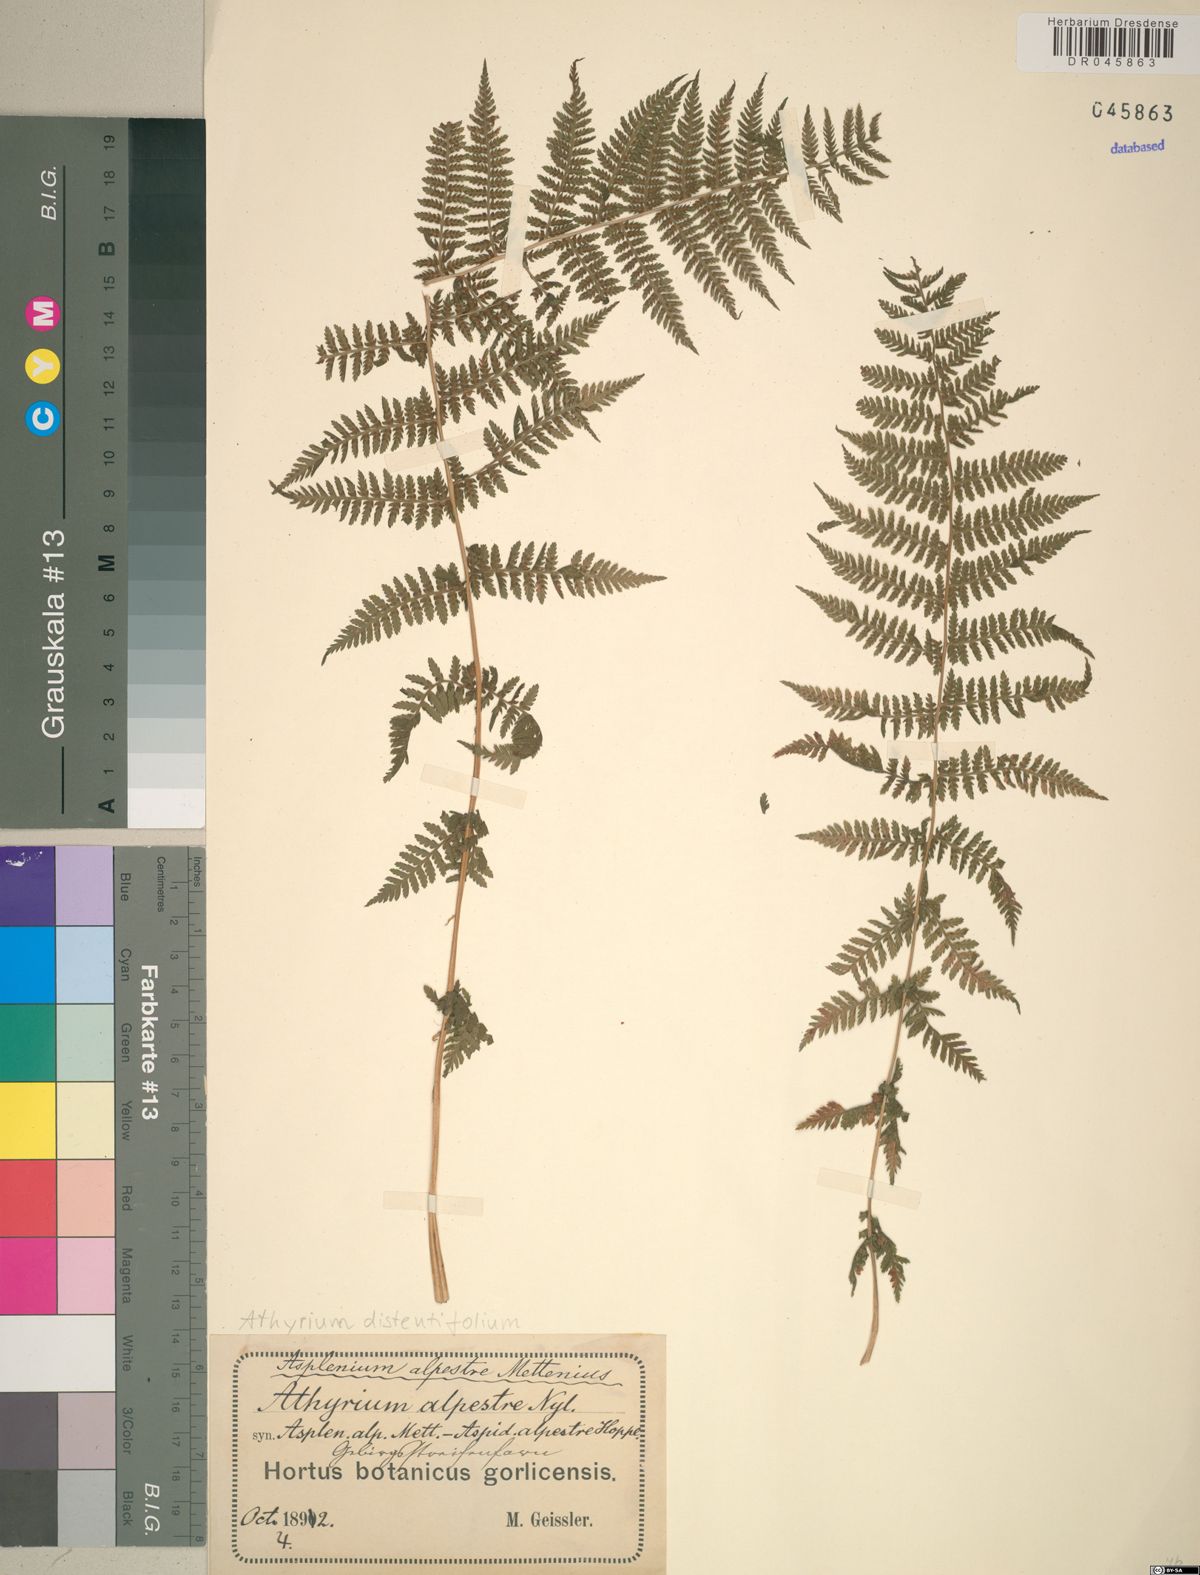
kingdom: Plantae
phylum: Tracheophyta
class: Polypodiopsida
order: Polypodiales
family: Athyriaceae
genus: Pseudathyrium
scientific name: Pseudathyrium alpestre
